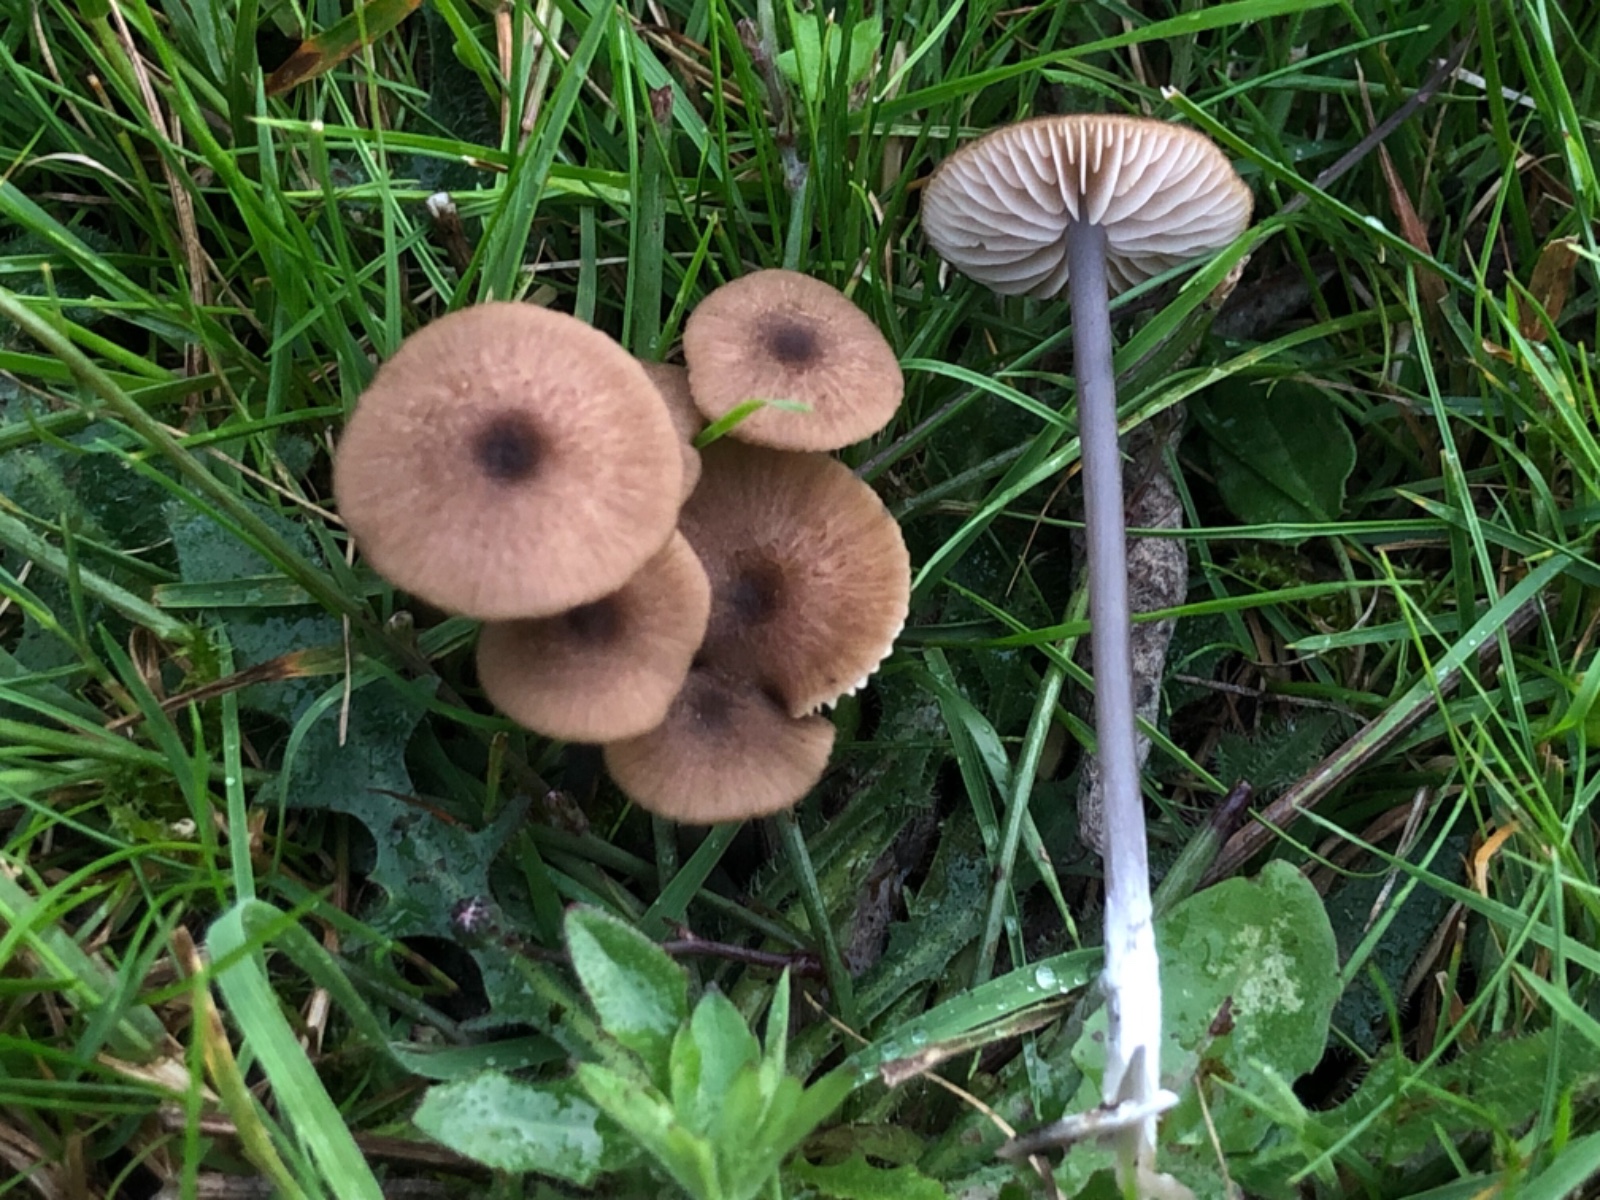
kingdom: Fungi
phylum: Basidiomycota
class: Agaricomycetes
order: Agaricales
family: Entolomataceae
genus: Entoloma
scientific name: Entoloma asprellum
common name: ru rødblad
